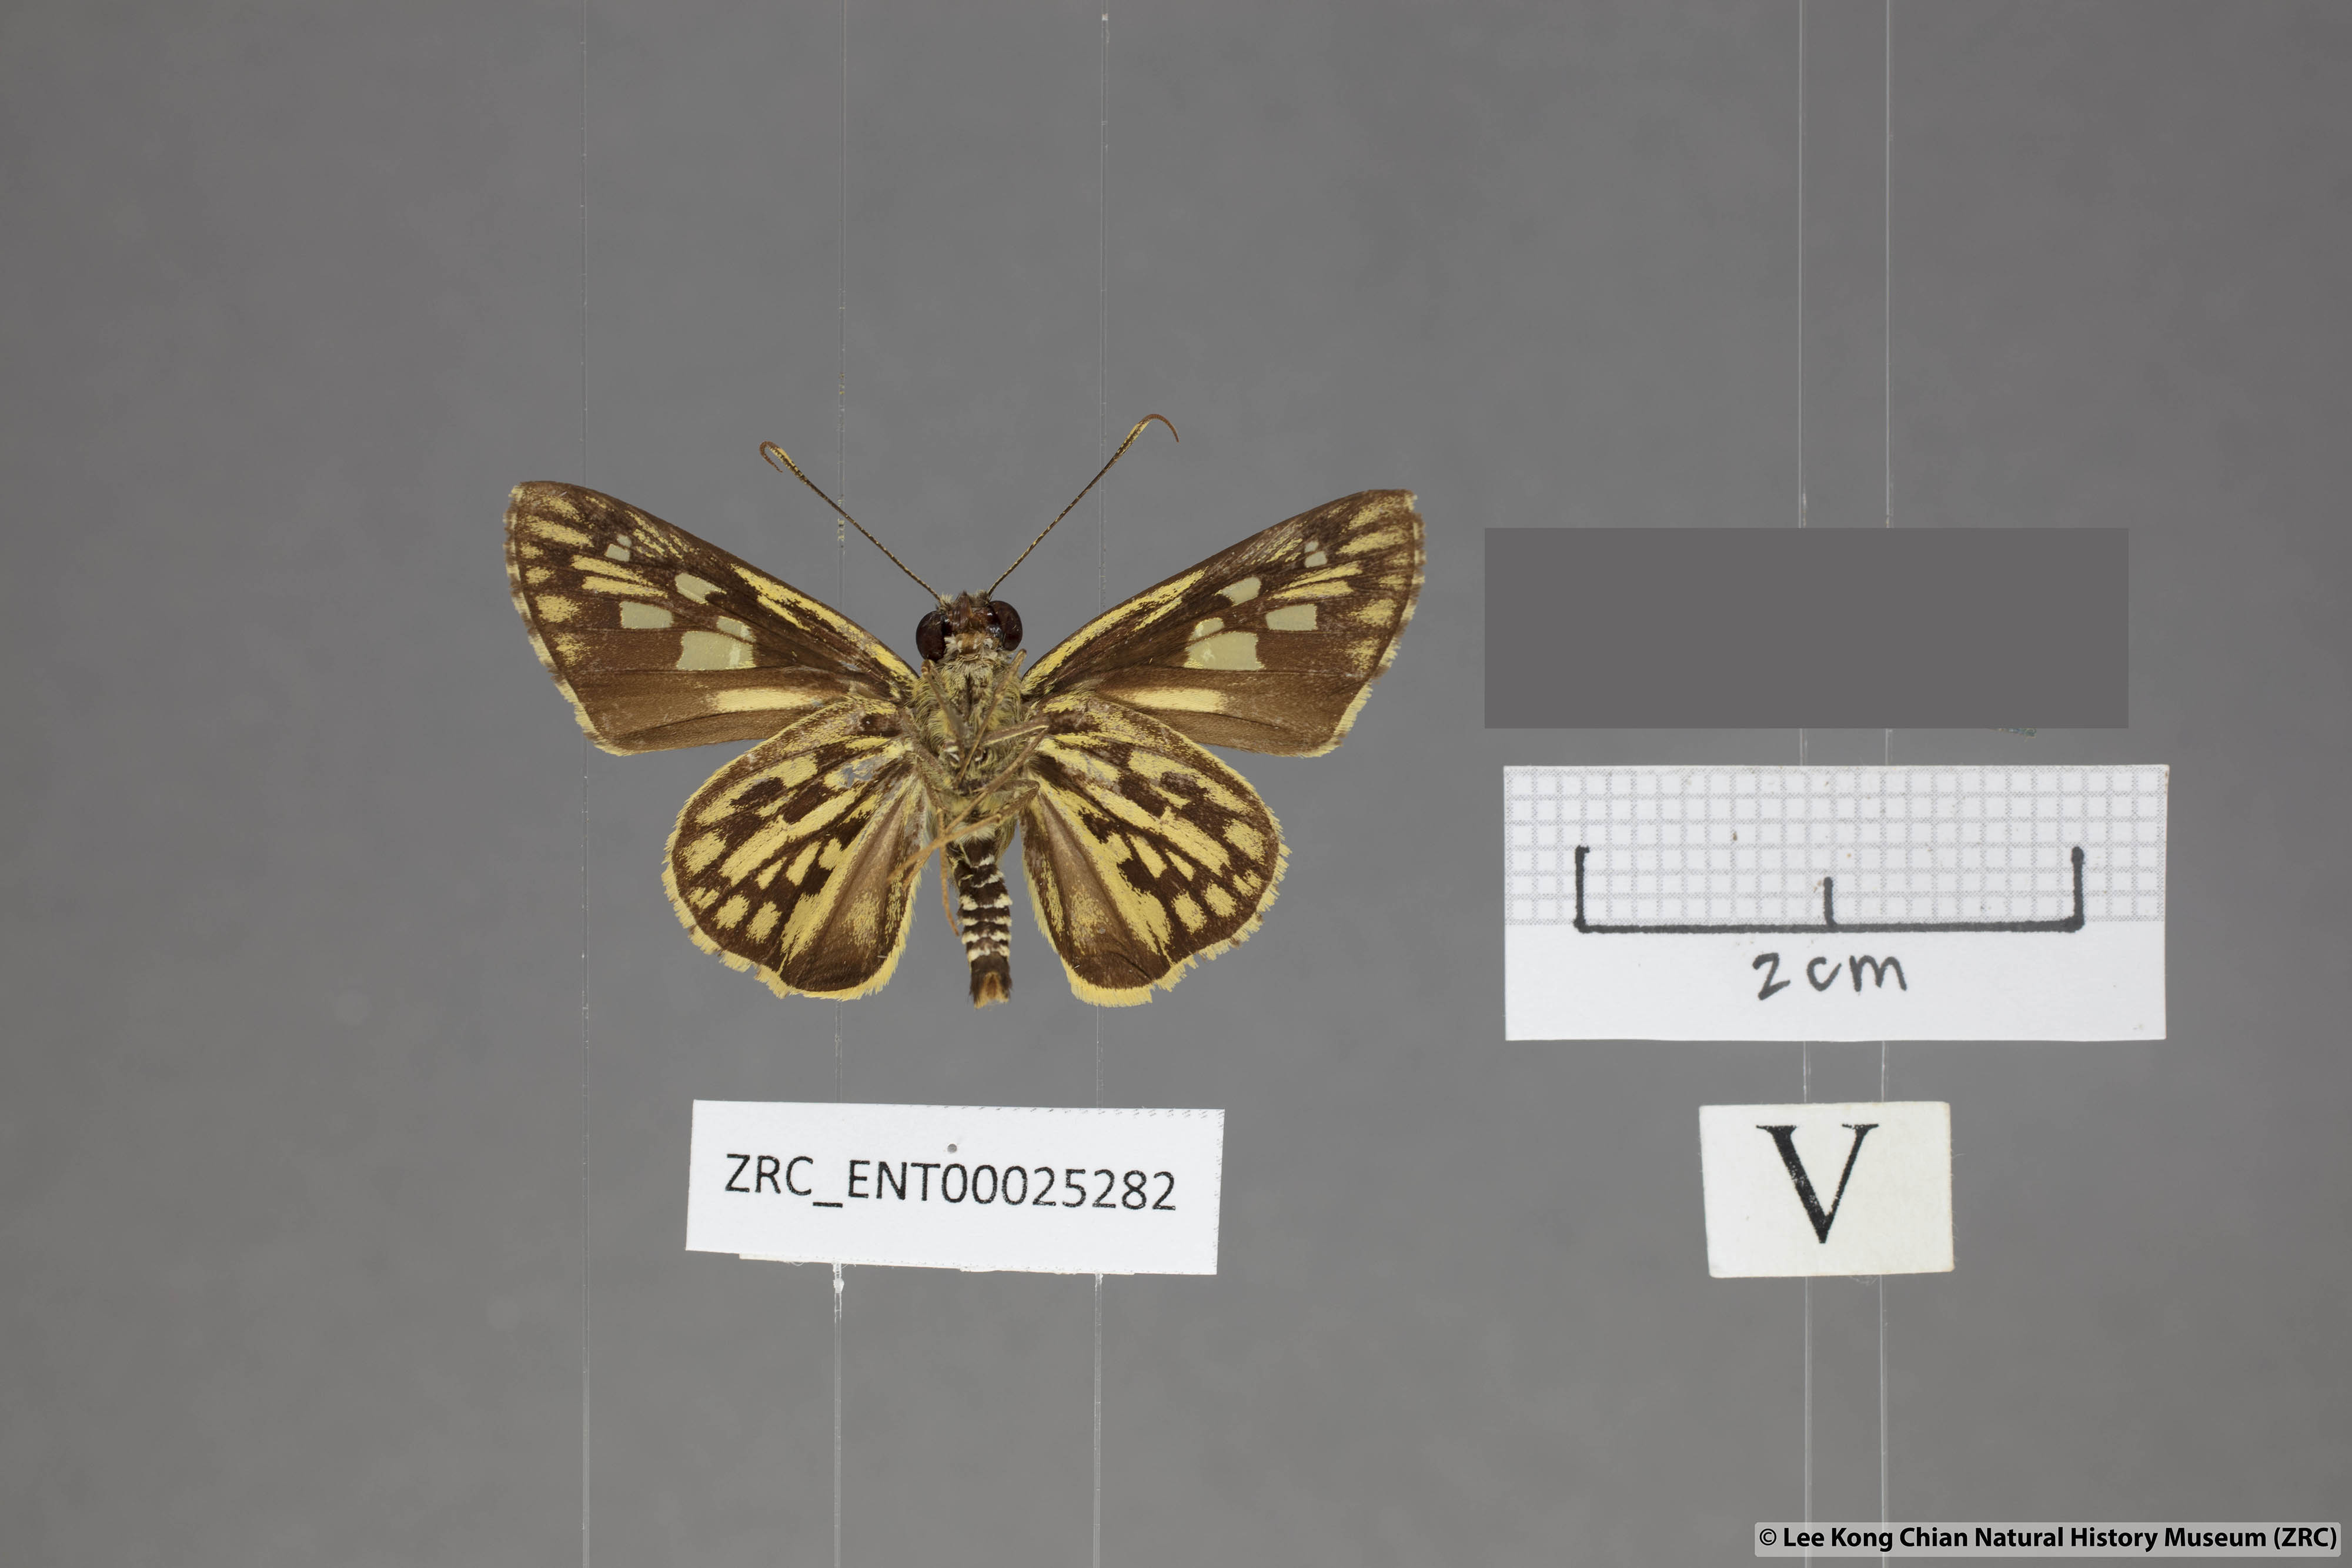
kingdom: Animalia
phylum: Arthropoda
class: Insecta
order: Lepidoptera
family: Hesperiidae
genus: Plastingia
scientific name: Plastingia pellonia
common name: Yellow chequered lancer
